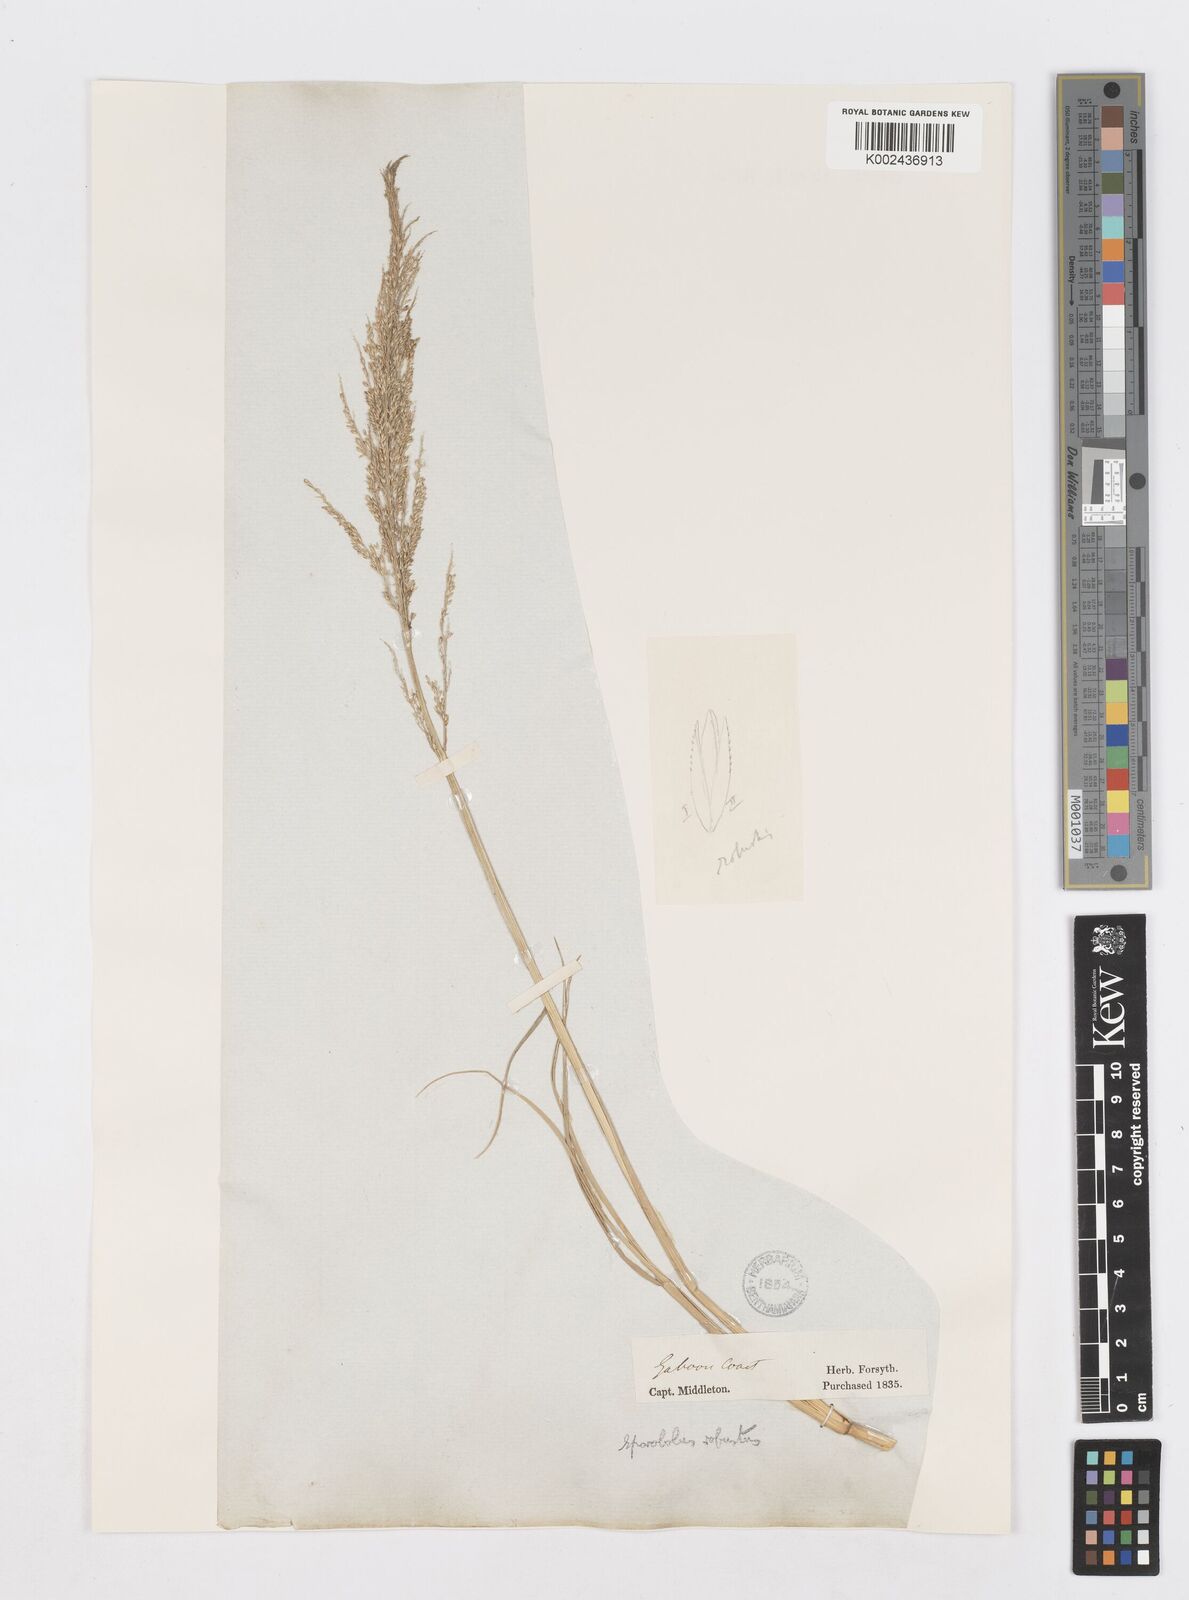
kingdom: Plantae
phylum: Tracheophyta
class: Liliopsida
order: Poales
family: Poaceae
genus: Sporobolus
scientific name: Sporobolus robustus
